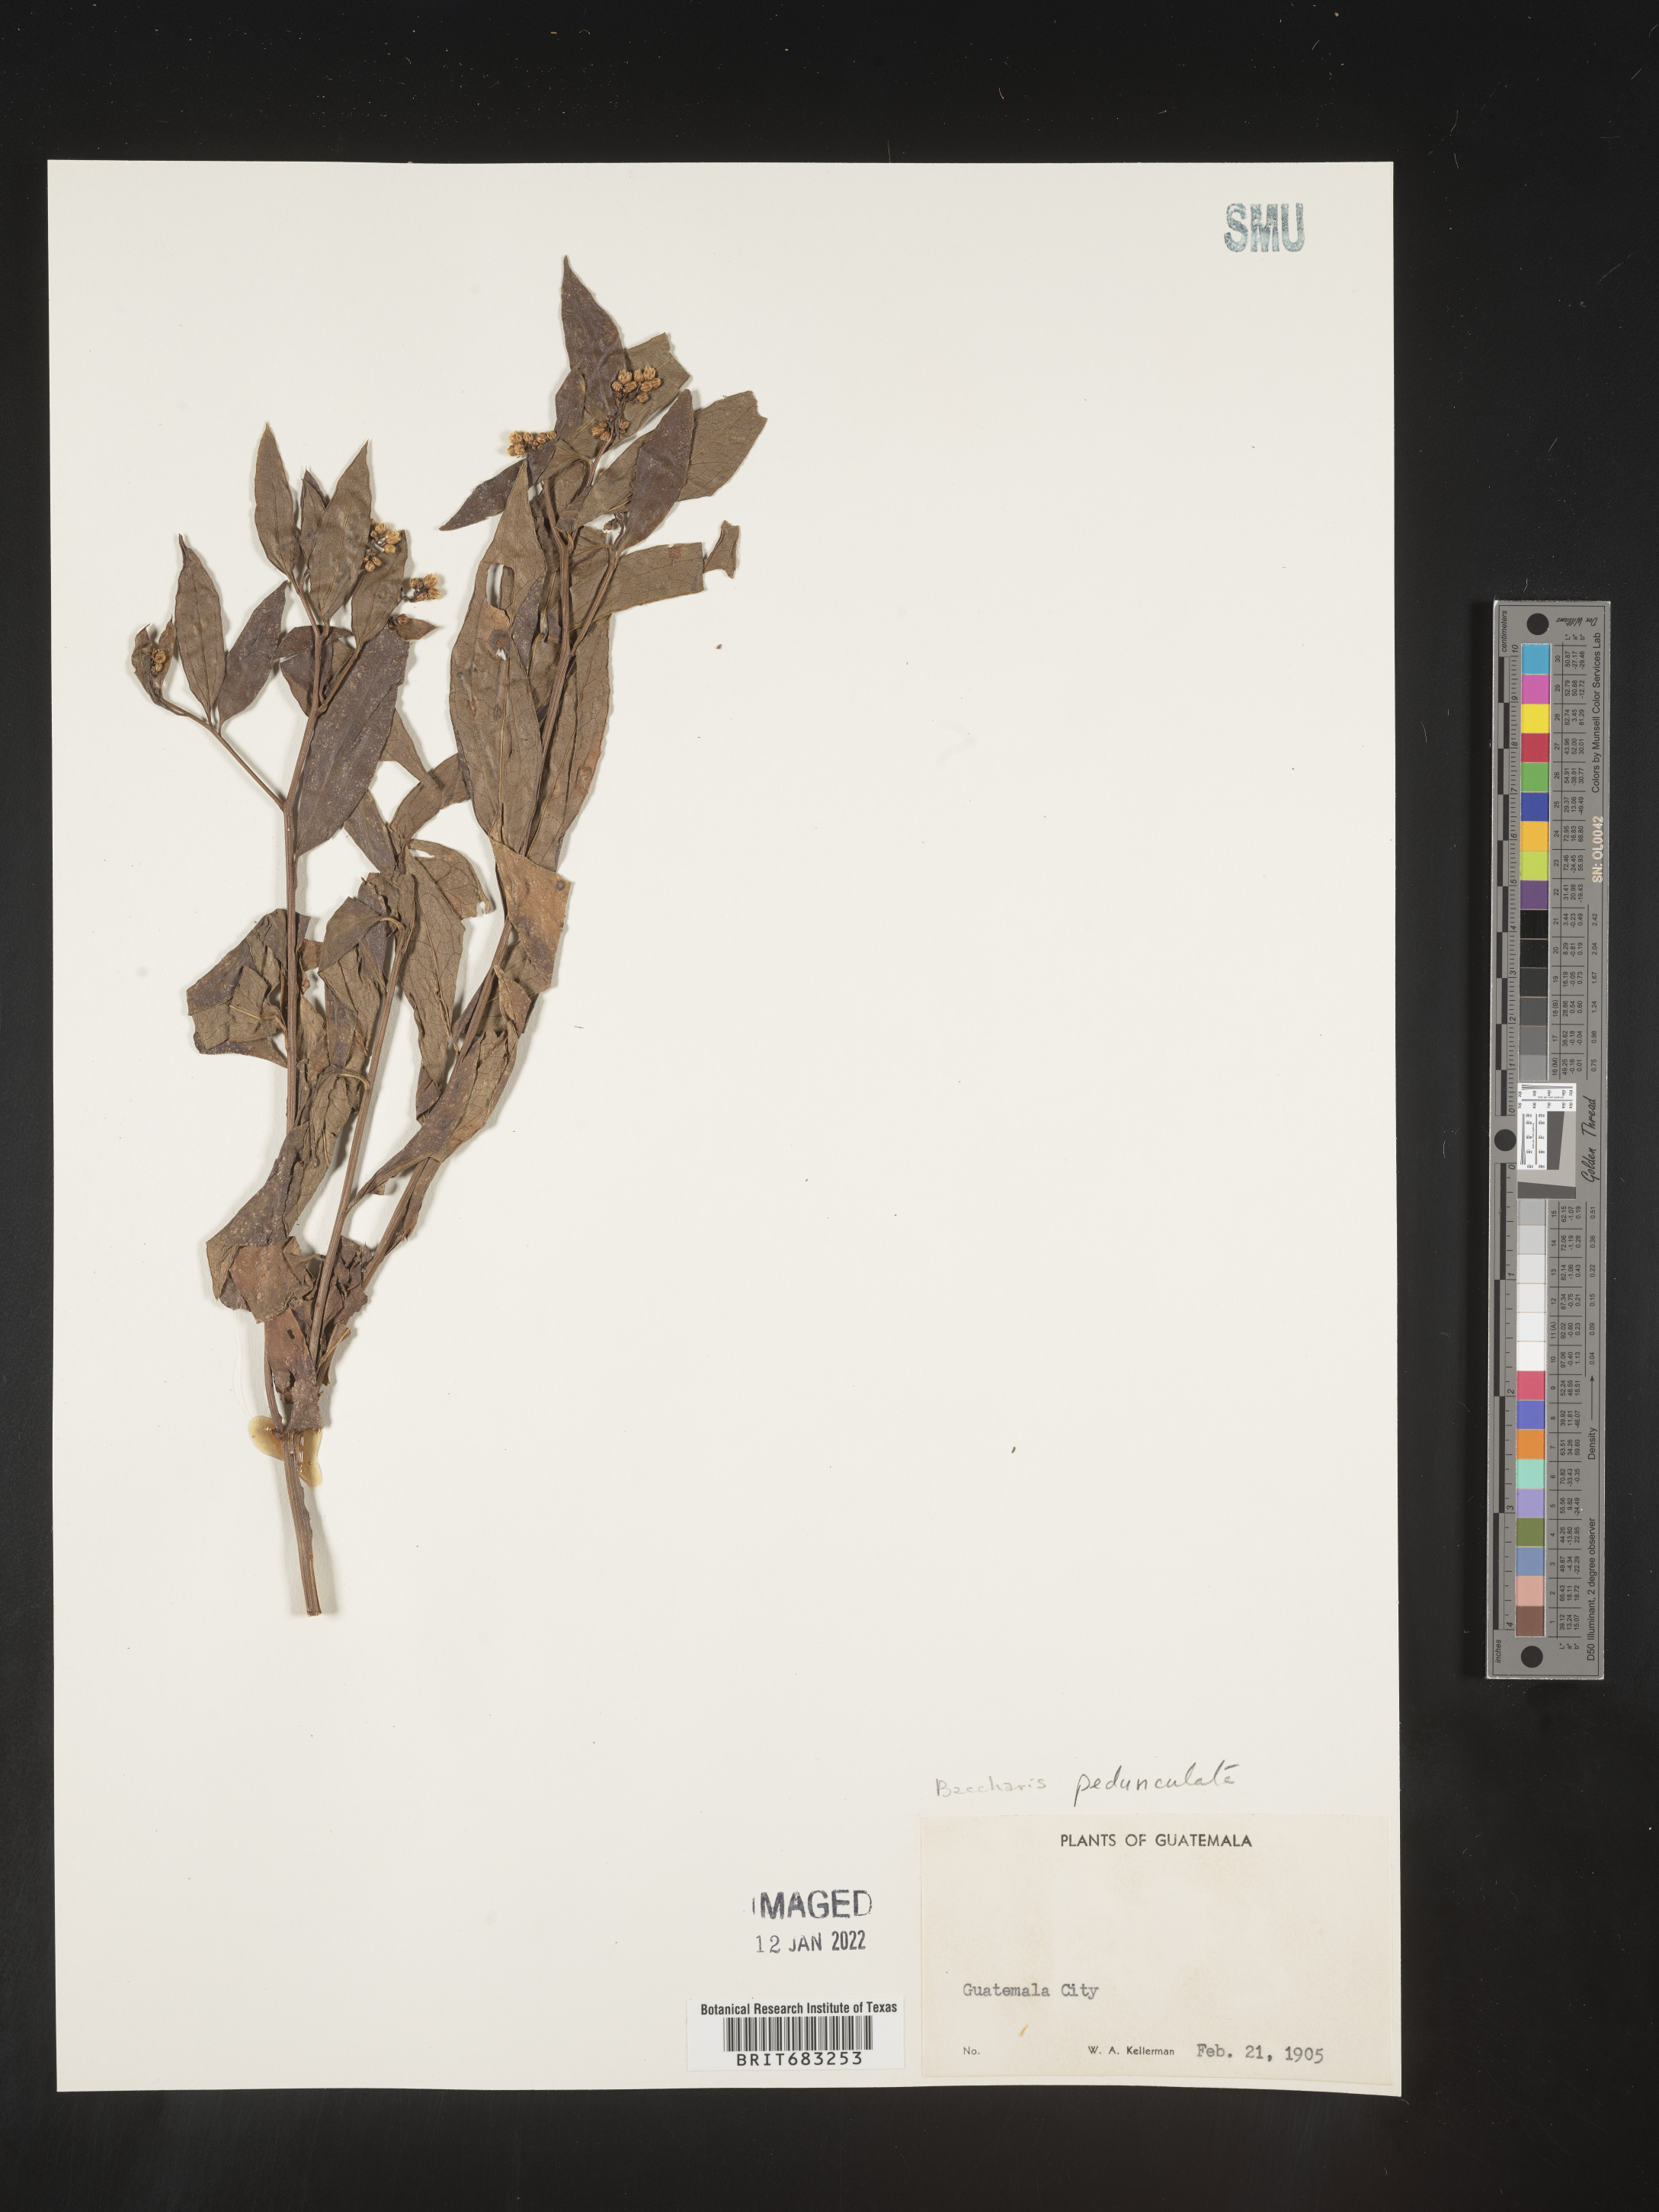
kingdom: Plantae
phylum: Tracheophyta
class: Magnoliopsida
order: Asterales
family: Asteraceae
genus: Baccharis
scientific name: Baccharis pedunculata
